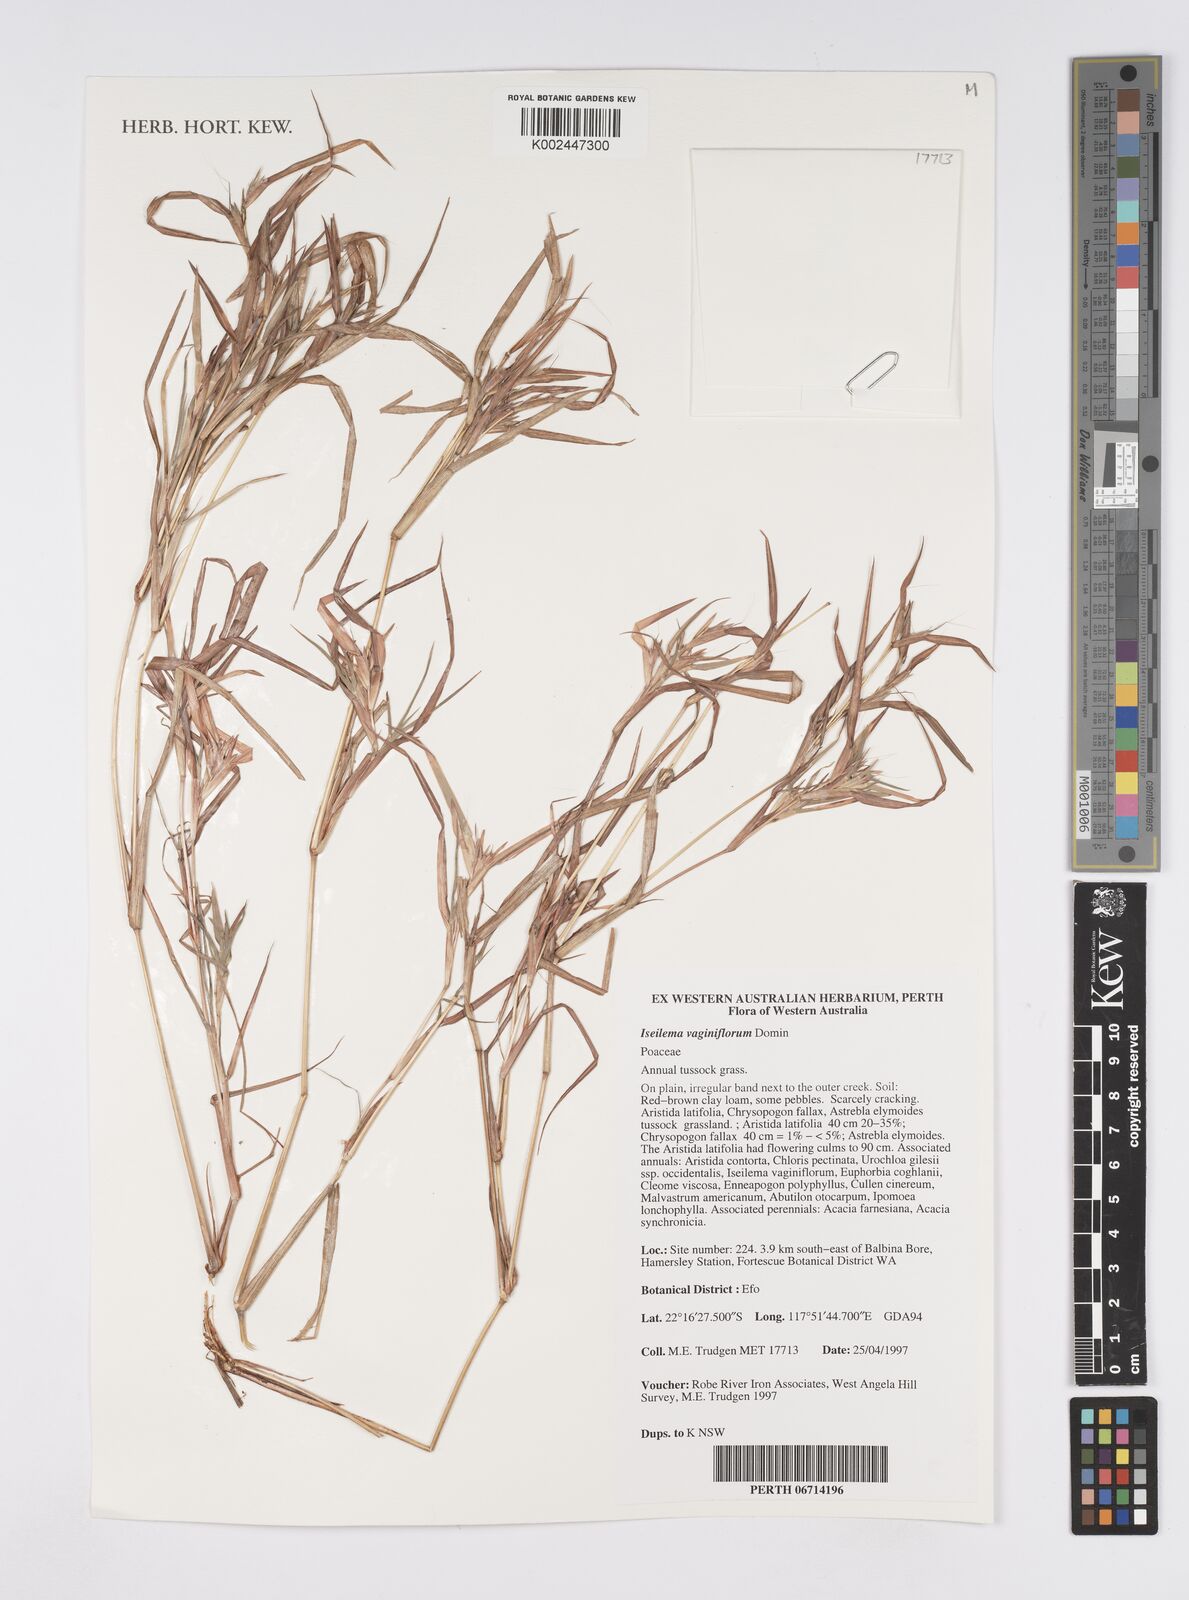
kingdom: Plantae
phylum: Tracheophyta
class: Liliopsida
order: Poales
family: Poaceae
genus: Iseilema
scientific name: Iseilema vaginiflorum
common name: Red flinders grass
